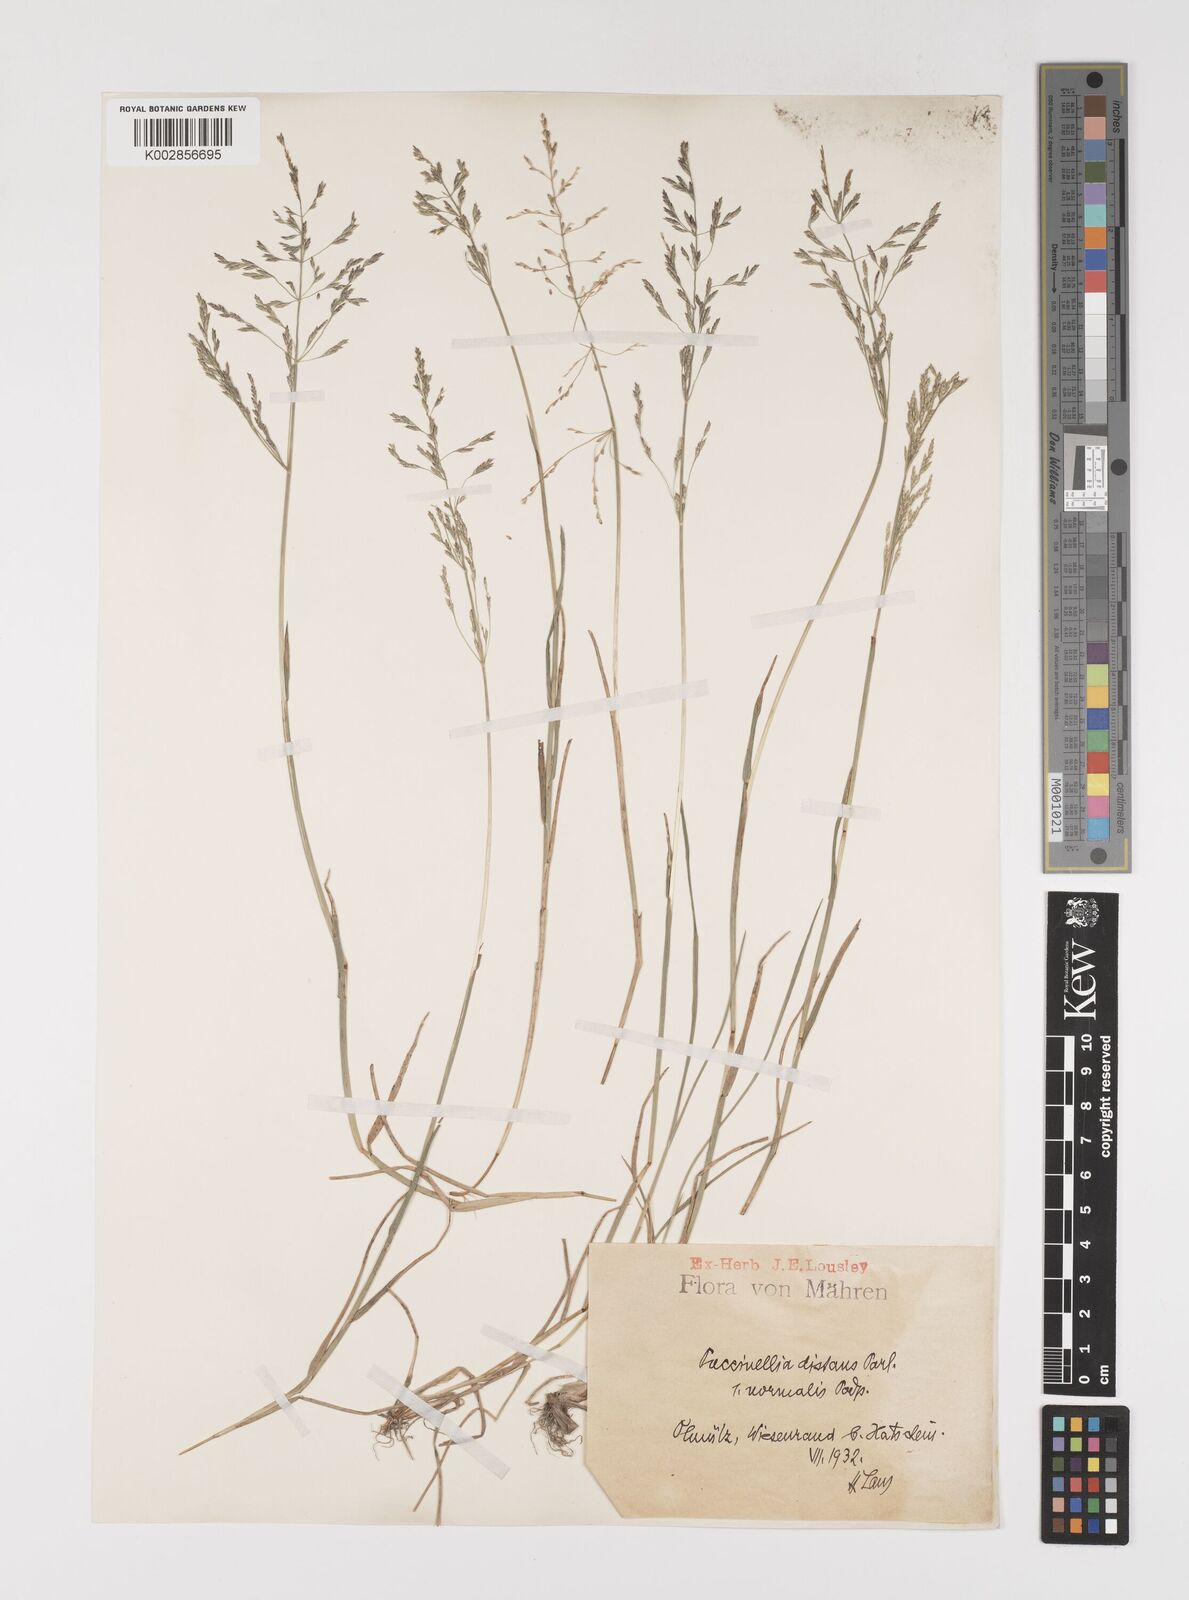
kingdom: Plantae
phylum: Tracheophyta
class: Liliopsida
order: Poales
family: Poaceae
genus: Puccinellia
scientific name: Puccinellia distans
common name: Weeping alkaligrass
